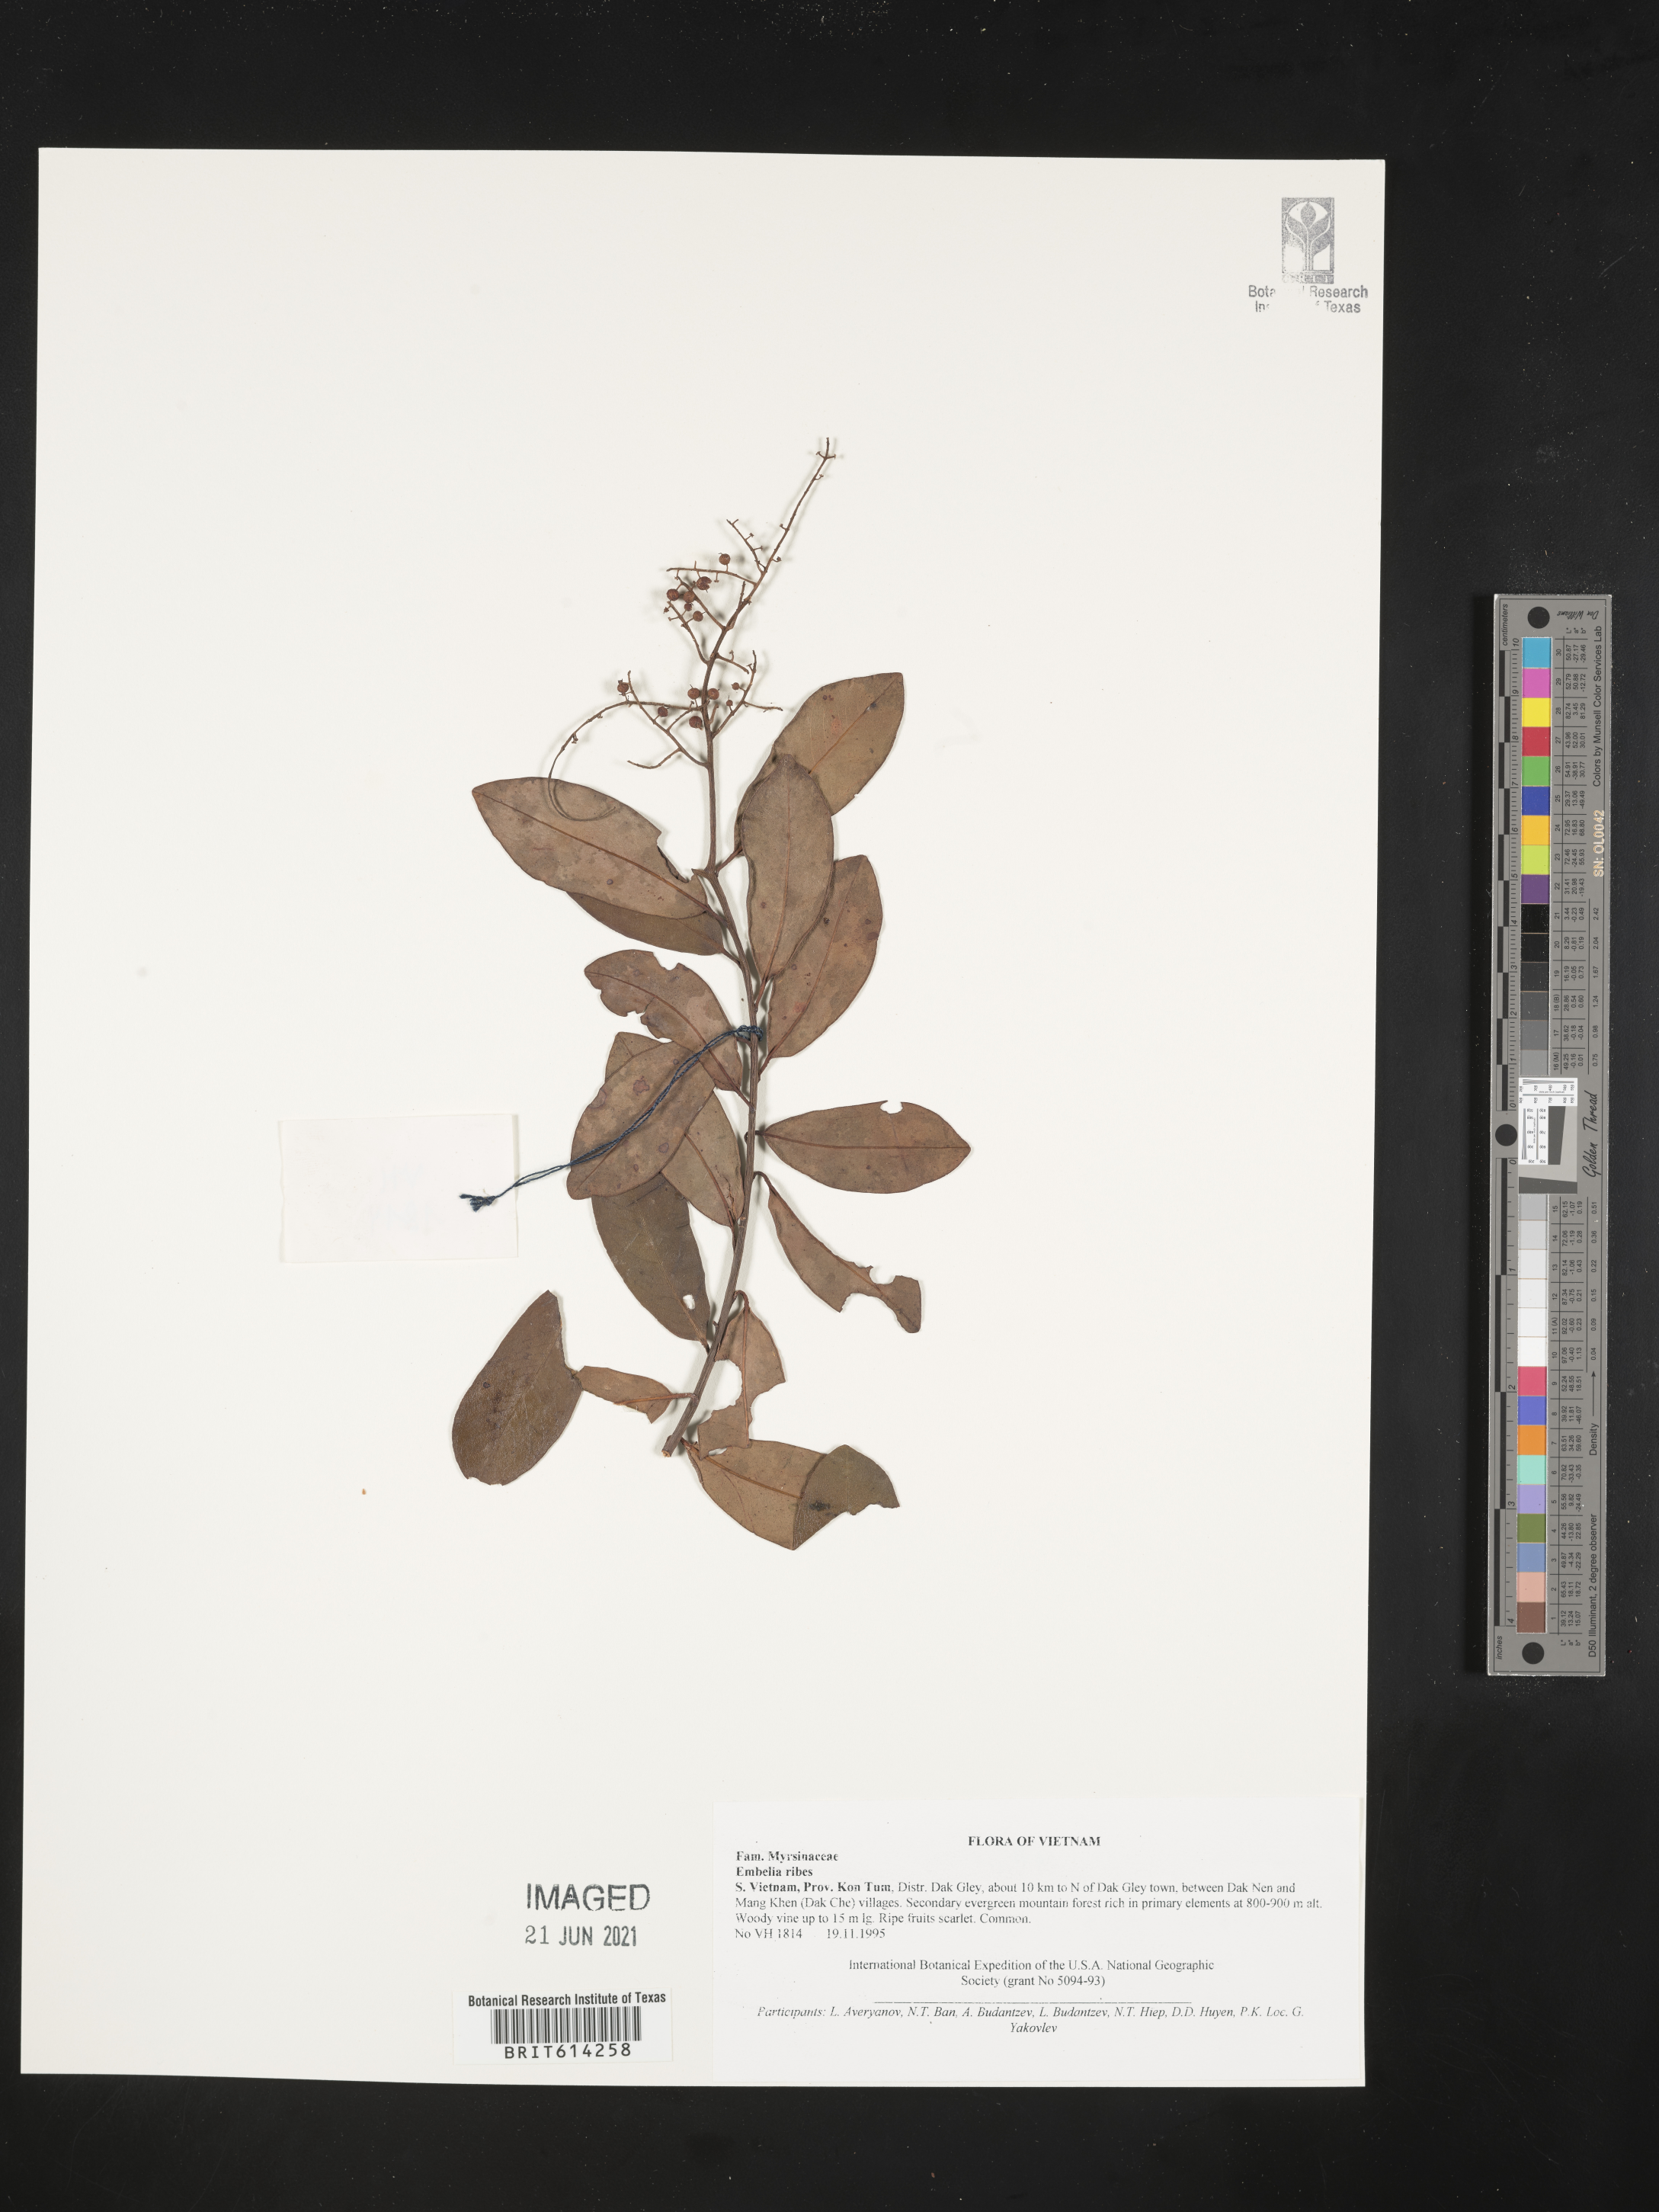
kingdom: Plantae
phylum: Tracheophyta
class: Magnoliopsida
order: Ericales
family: Primulaceae
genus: Embelia
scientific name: Embelia
